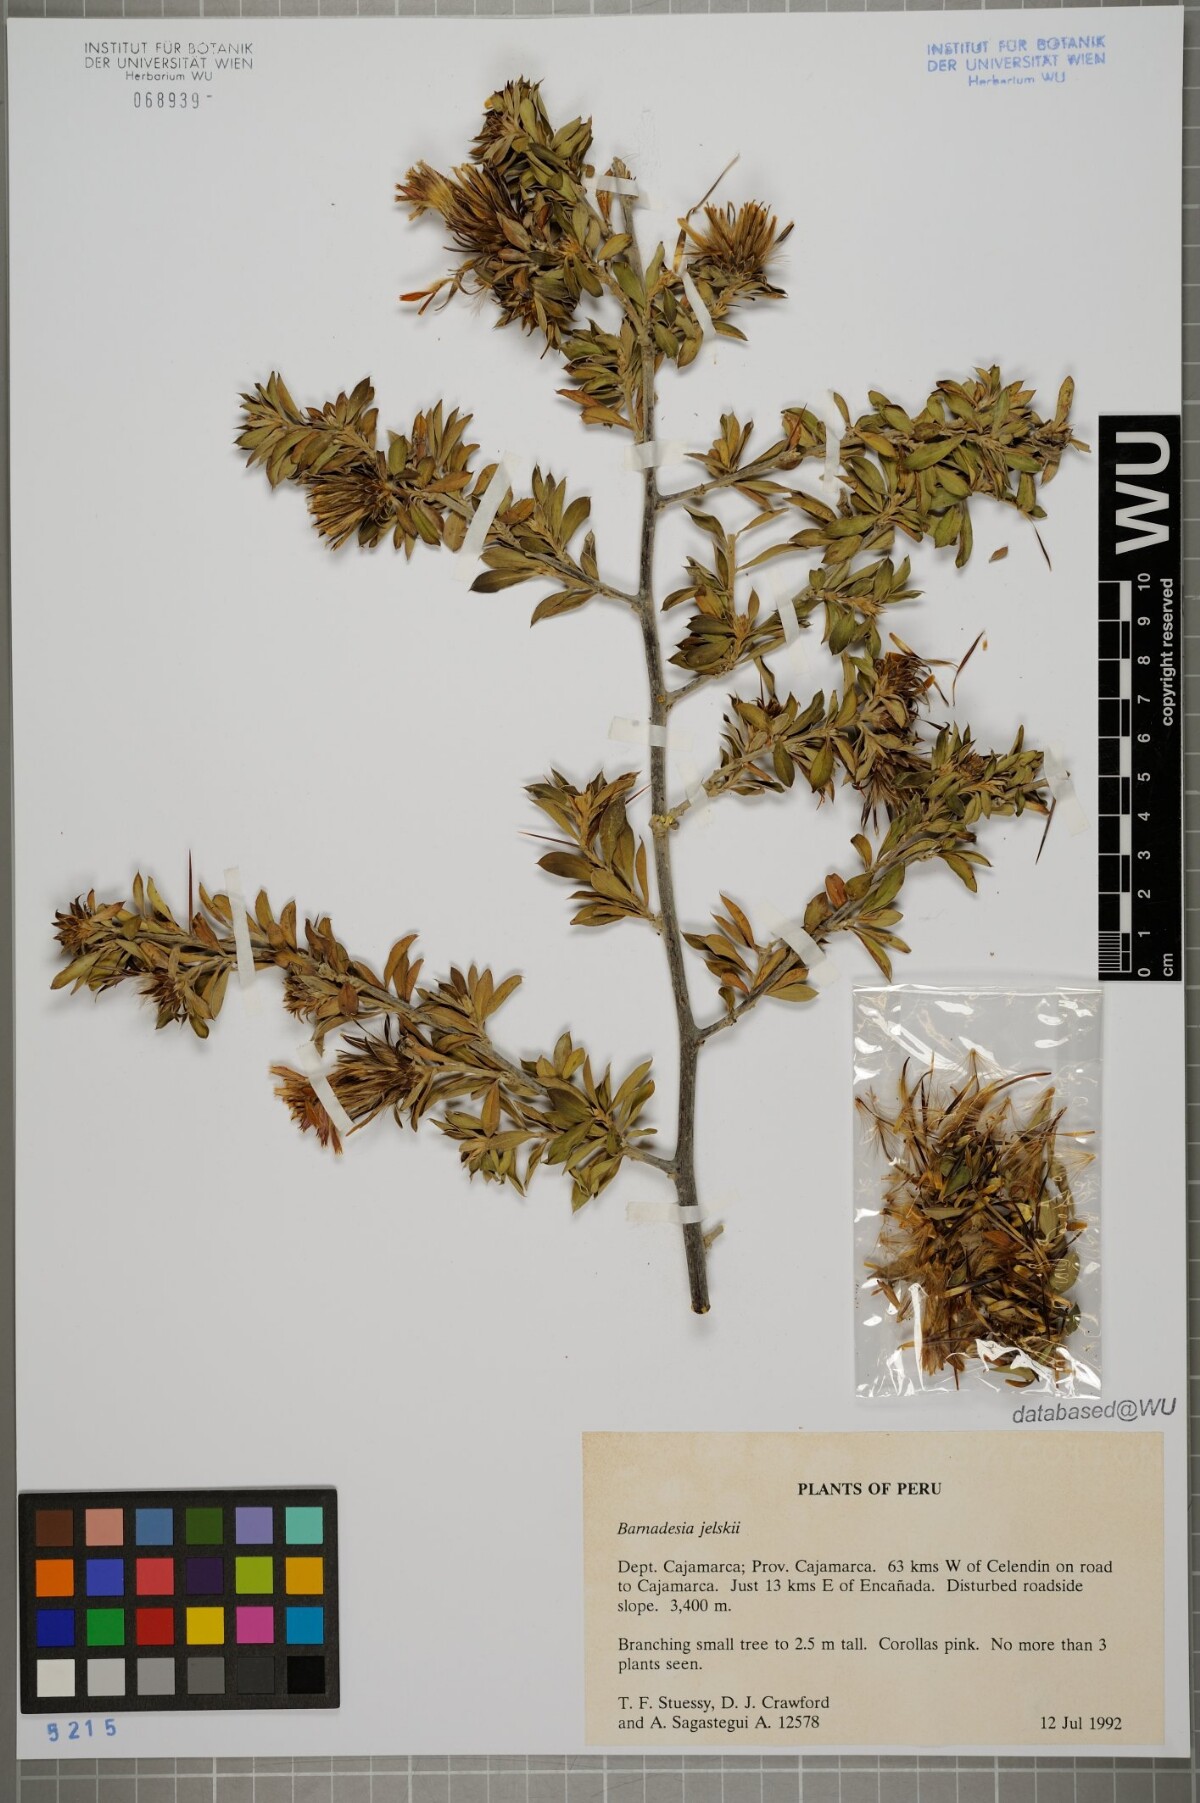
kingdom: Plantae
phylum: Tracheophyta
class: Magnoliopsida
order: Asterales
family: Asteraceae
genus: Barnadesia
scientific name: Barnadesia arborea
